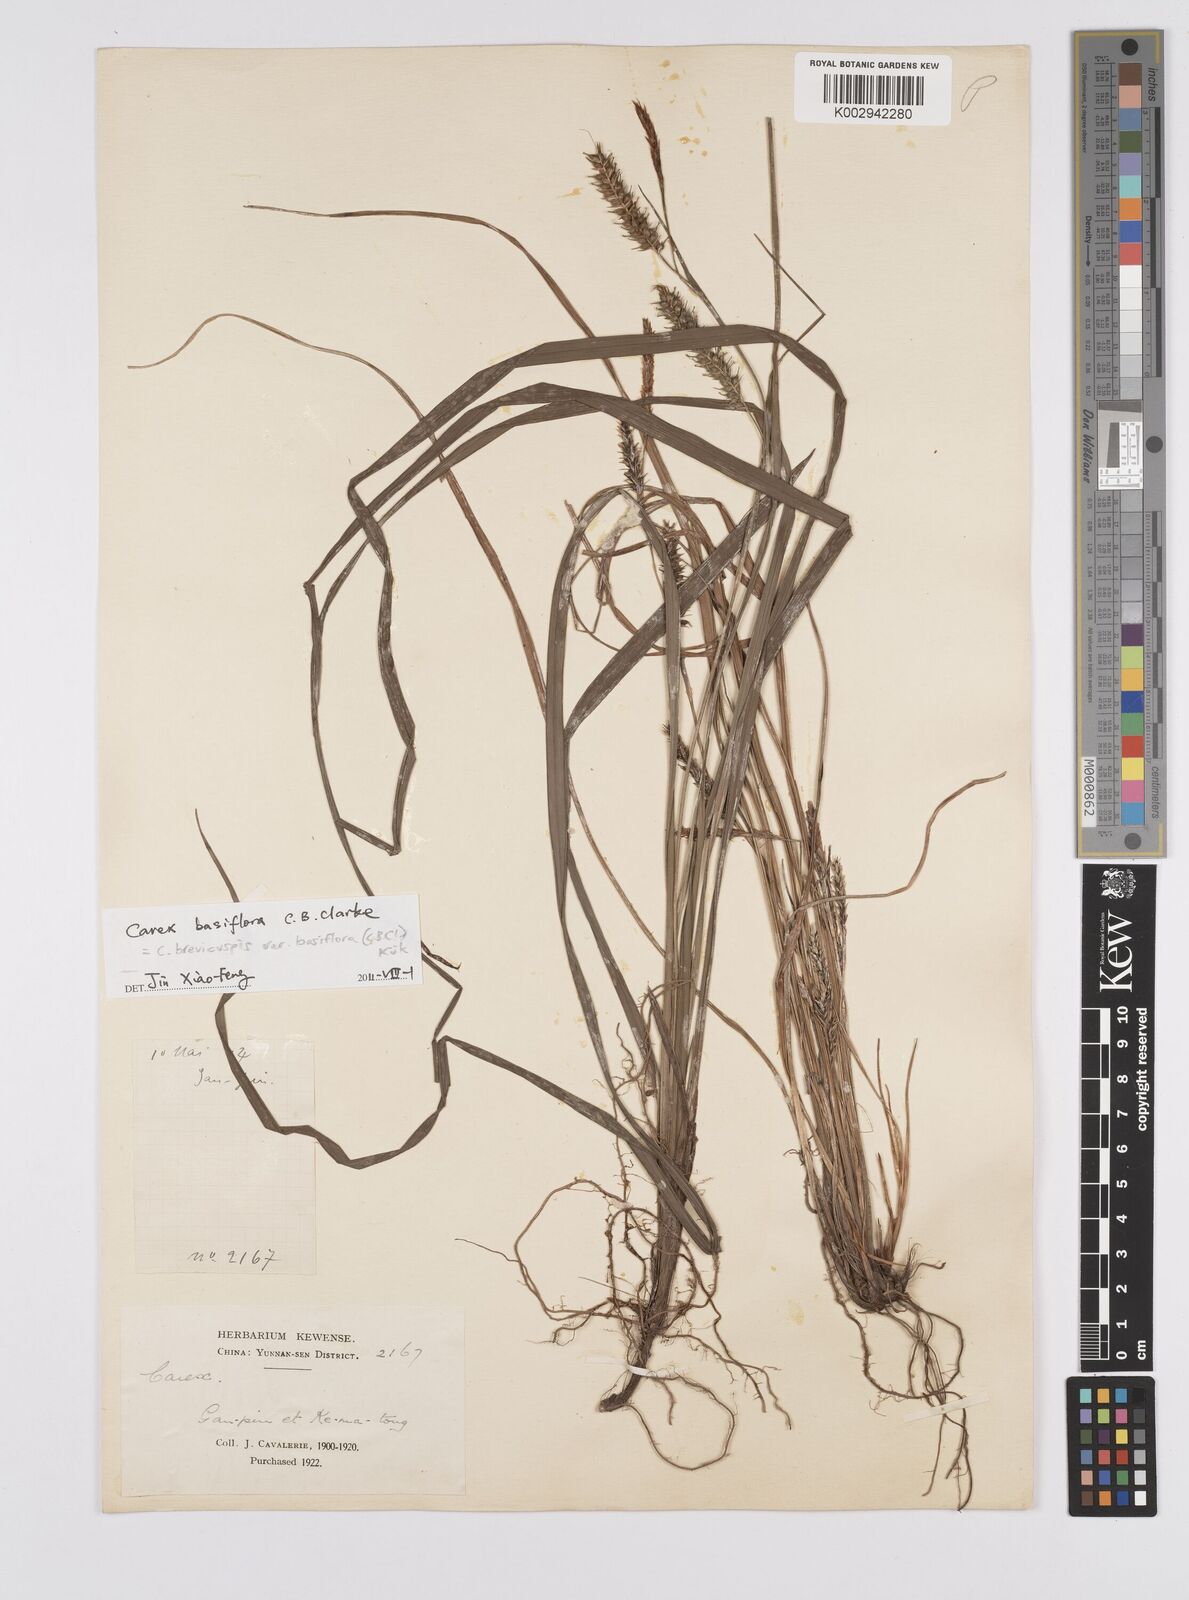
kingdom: Plantae
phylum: Tracheophyta
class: Liliopsida
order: Poales
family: Cyperaceae
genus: Carex
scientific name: Carex brevicuspis
